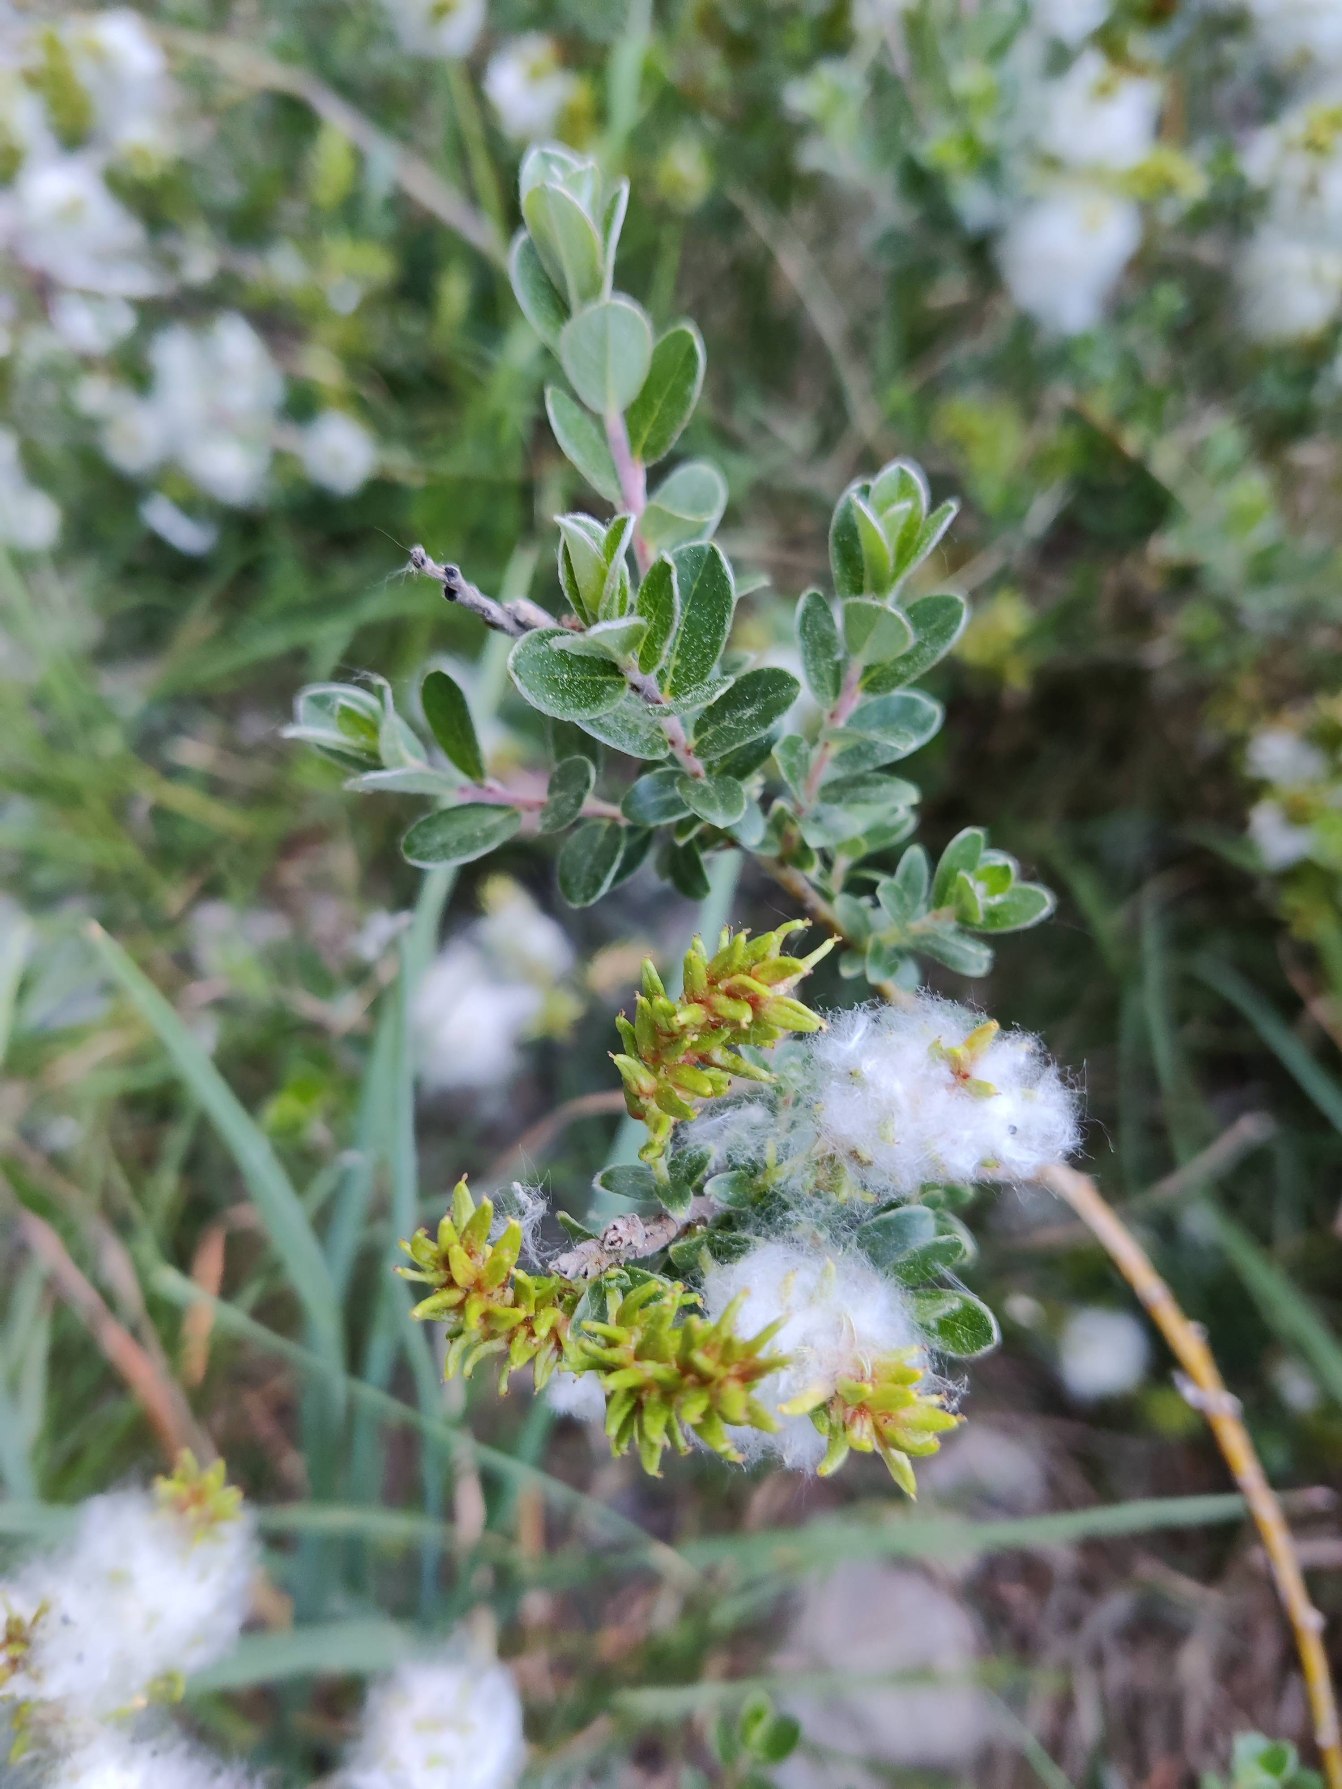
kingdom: Plantae
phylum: Tracheophyta
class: Magnoliopsida
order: Malpighiales
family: Salicaceae
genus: Salix
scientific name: Salix repens
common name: Krybende pil
